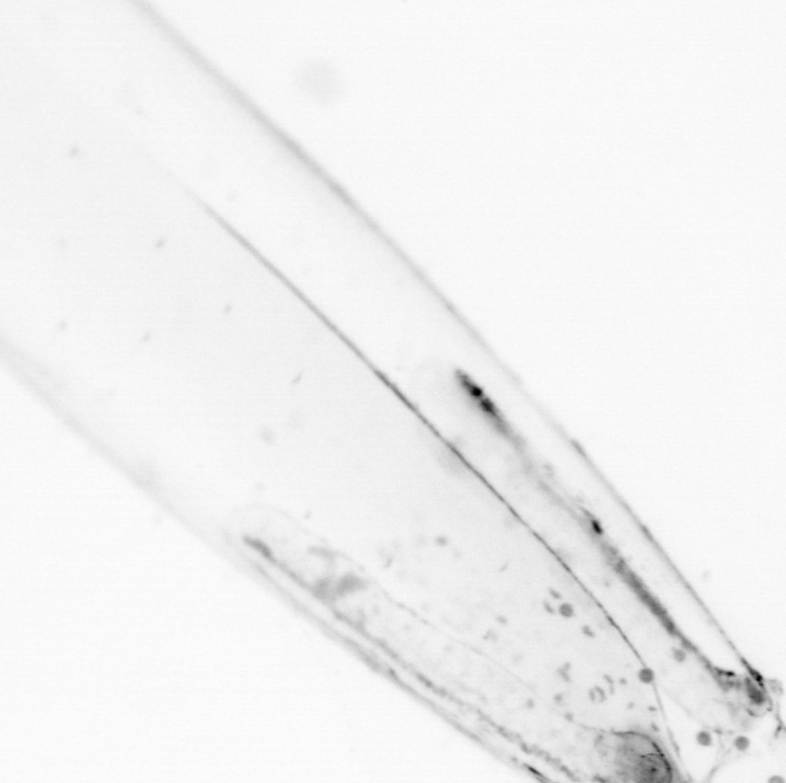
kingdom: Animalia
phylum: Chaetognatha
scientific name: Chaetognatha
